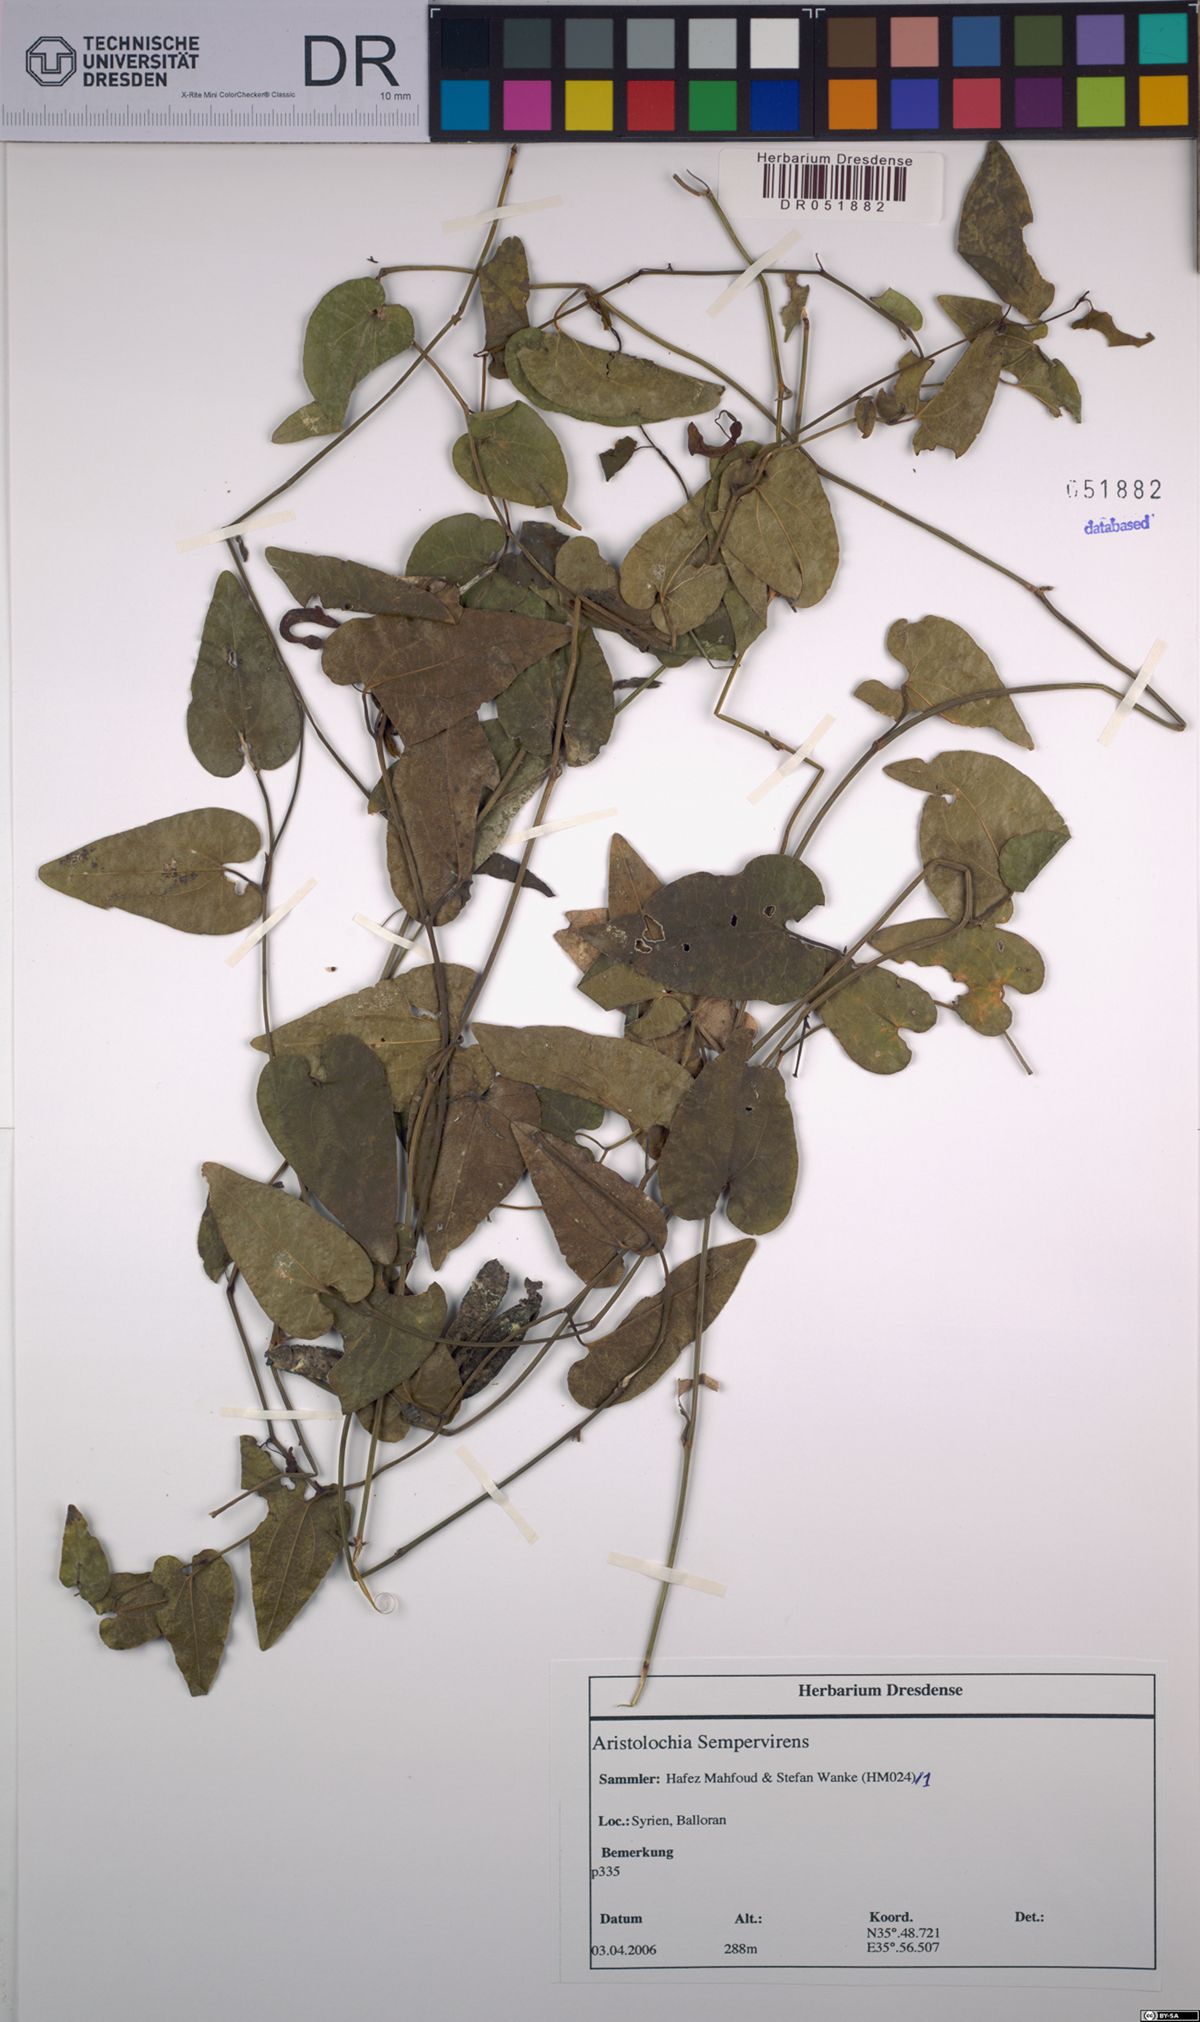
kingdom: Plantae
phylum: Tracheophyta
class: Magnoliopsida
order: Piperales
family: Aristolochiaceae
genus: Aristolochia
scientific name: Aristolochia sempervirens
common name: Long birthwort
